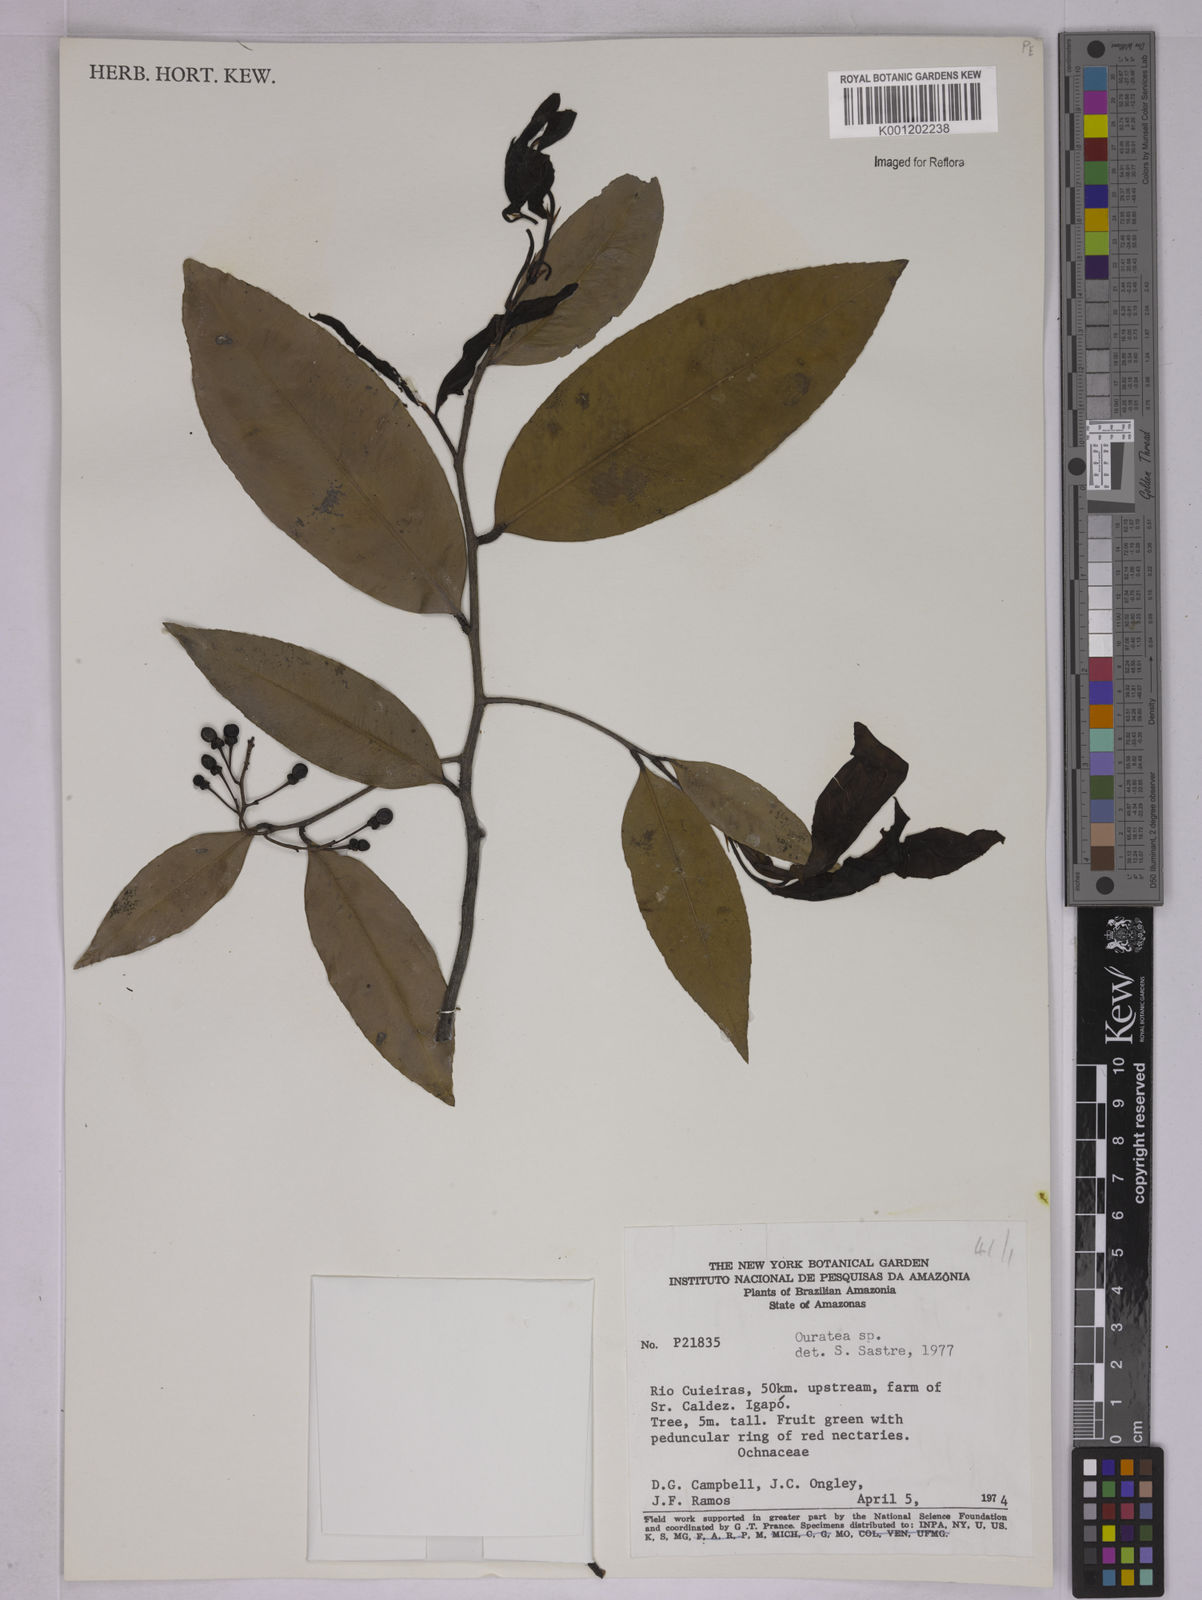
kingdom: Plantae
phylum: Tracheophyta
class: Magnoliopsida
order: Malpighiales
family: Ochnaceae
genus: Ouratea
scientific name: Ouratea
